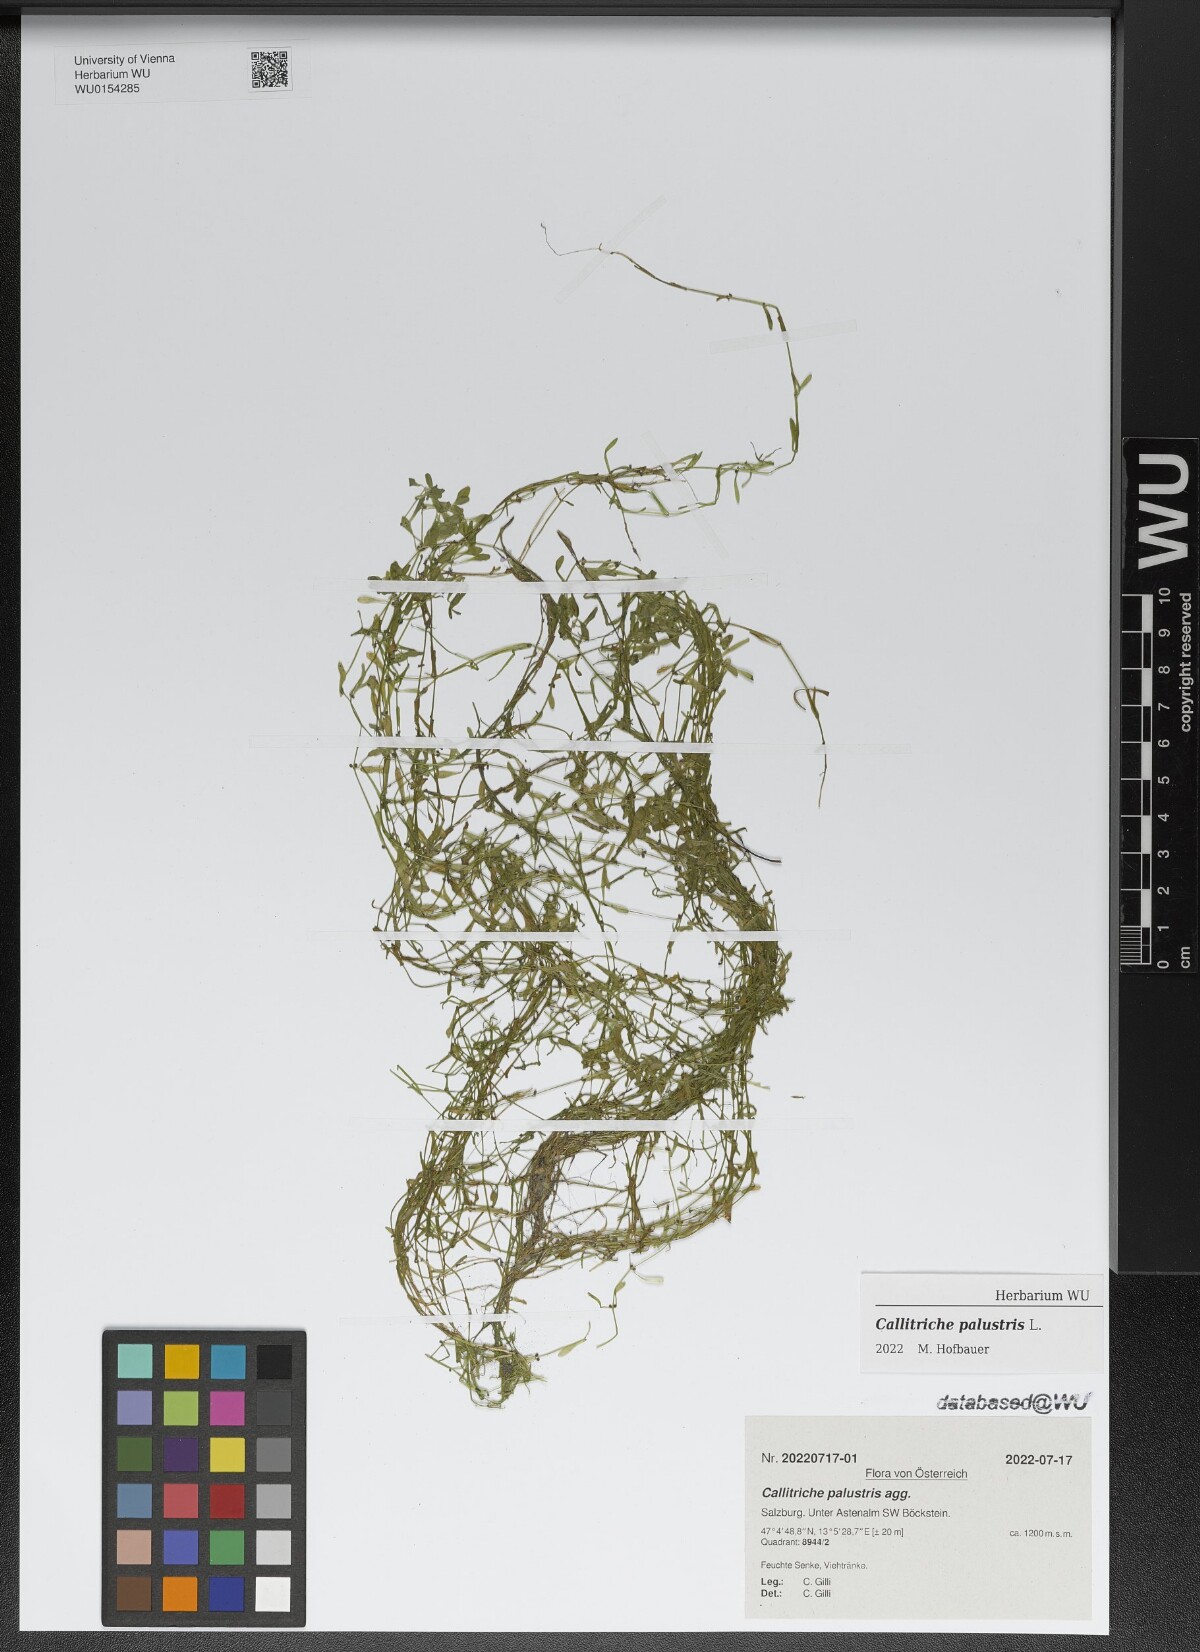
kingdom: Plantae
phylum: Tracheophyta
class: Magnoliopsida
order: Lamiales
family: Plantaginaceae
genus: Callitriche
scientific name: Callitriche palustris
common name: Spring water-starwort
